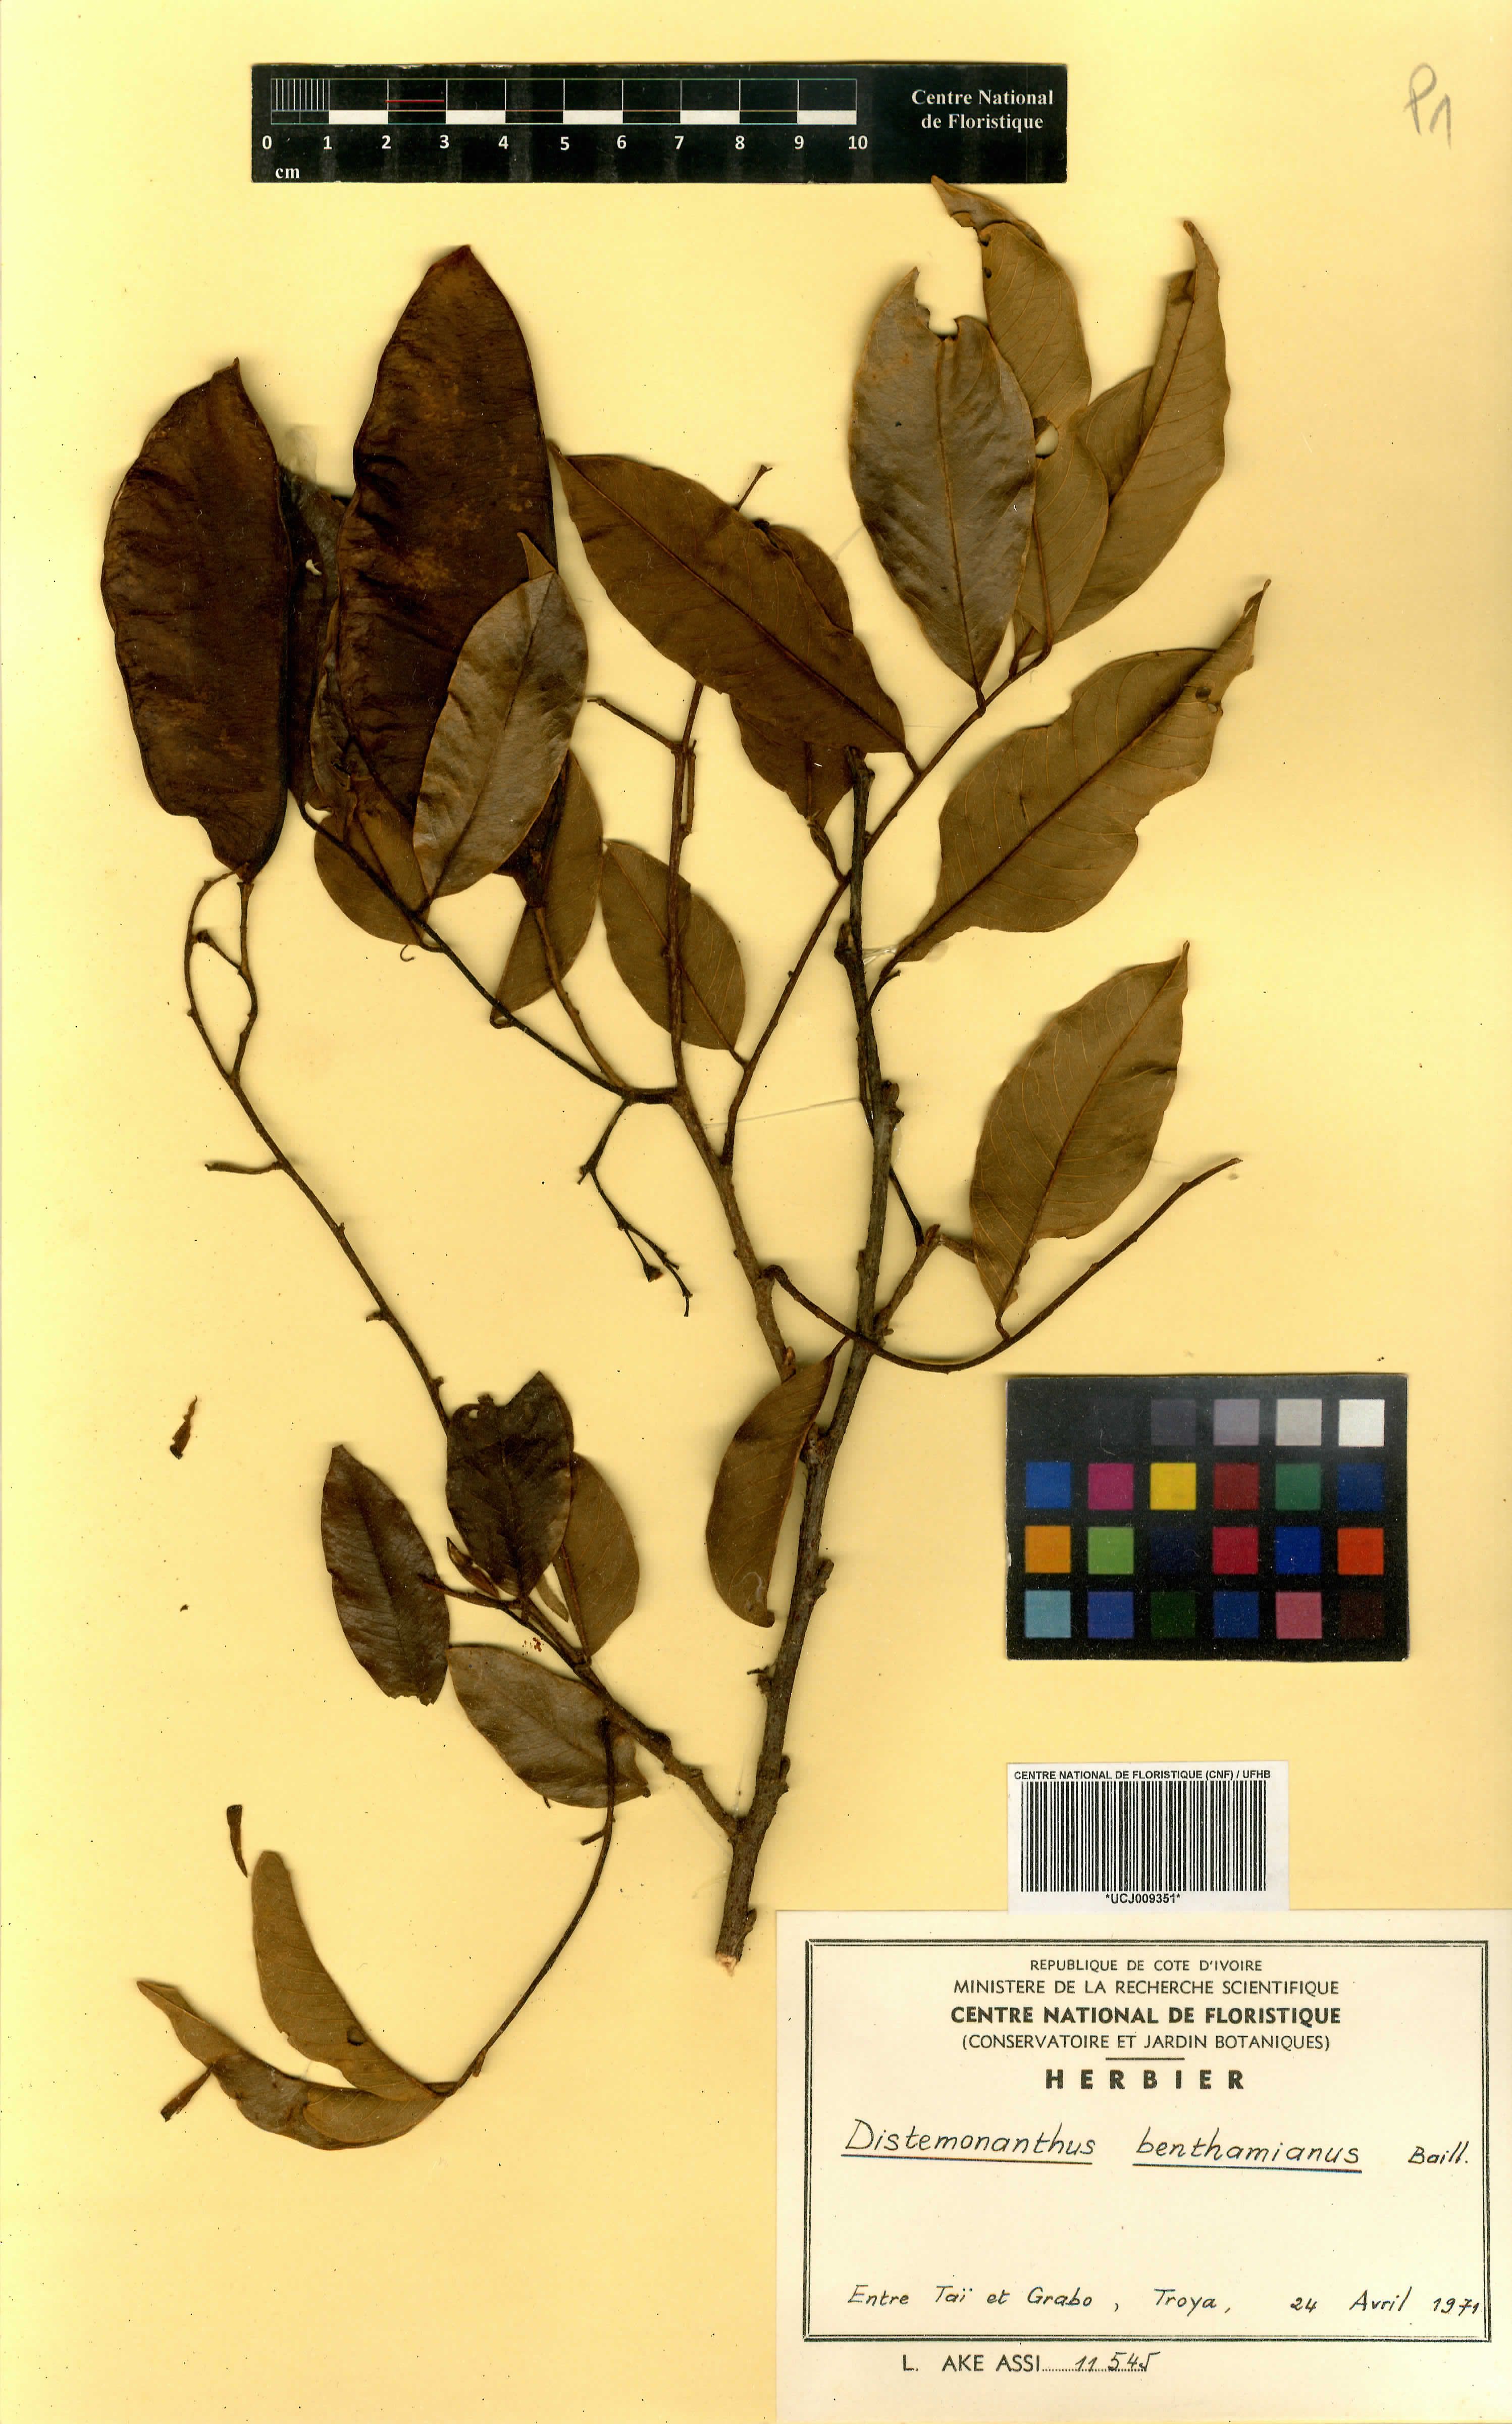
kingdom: Plantae
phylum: Tracheophyta
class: Magnoliopsida
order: Fabales
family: Fabaceae
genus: Distemonanthus
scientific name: Distemonanthus benthamianus
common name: Yellow satinwood
